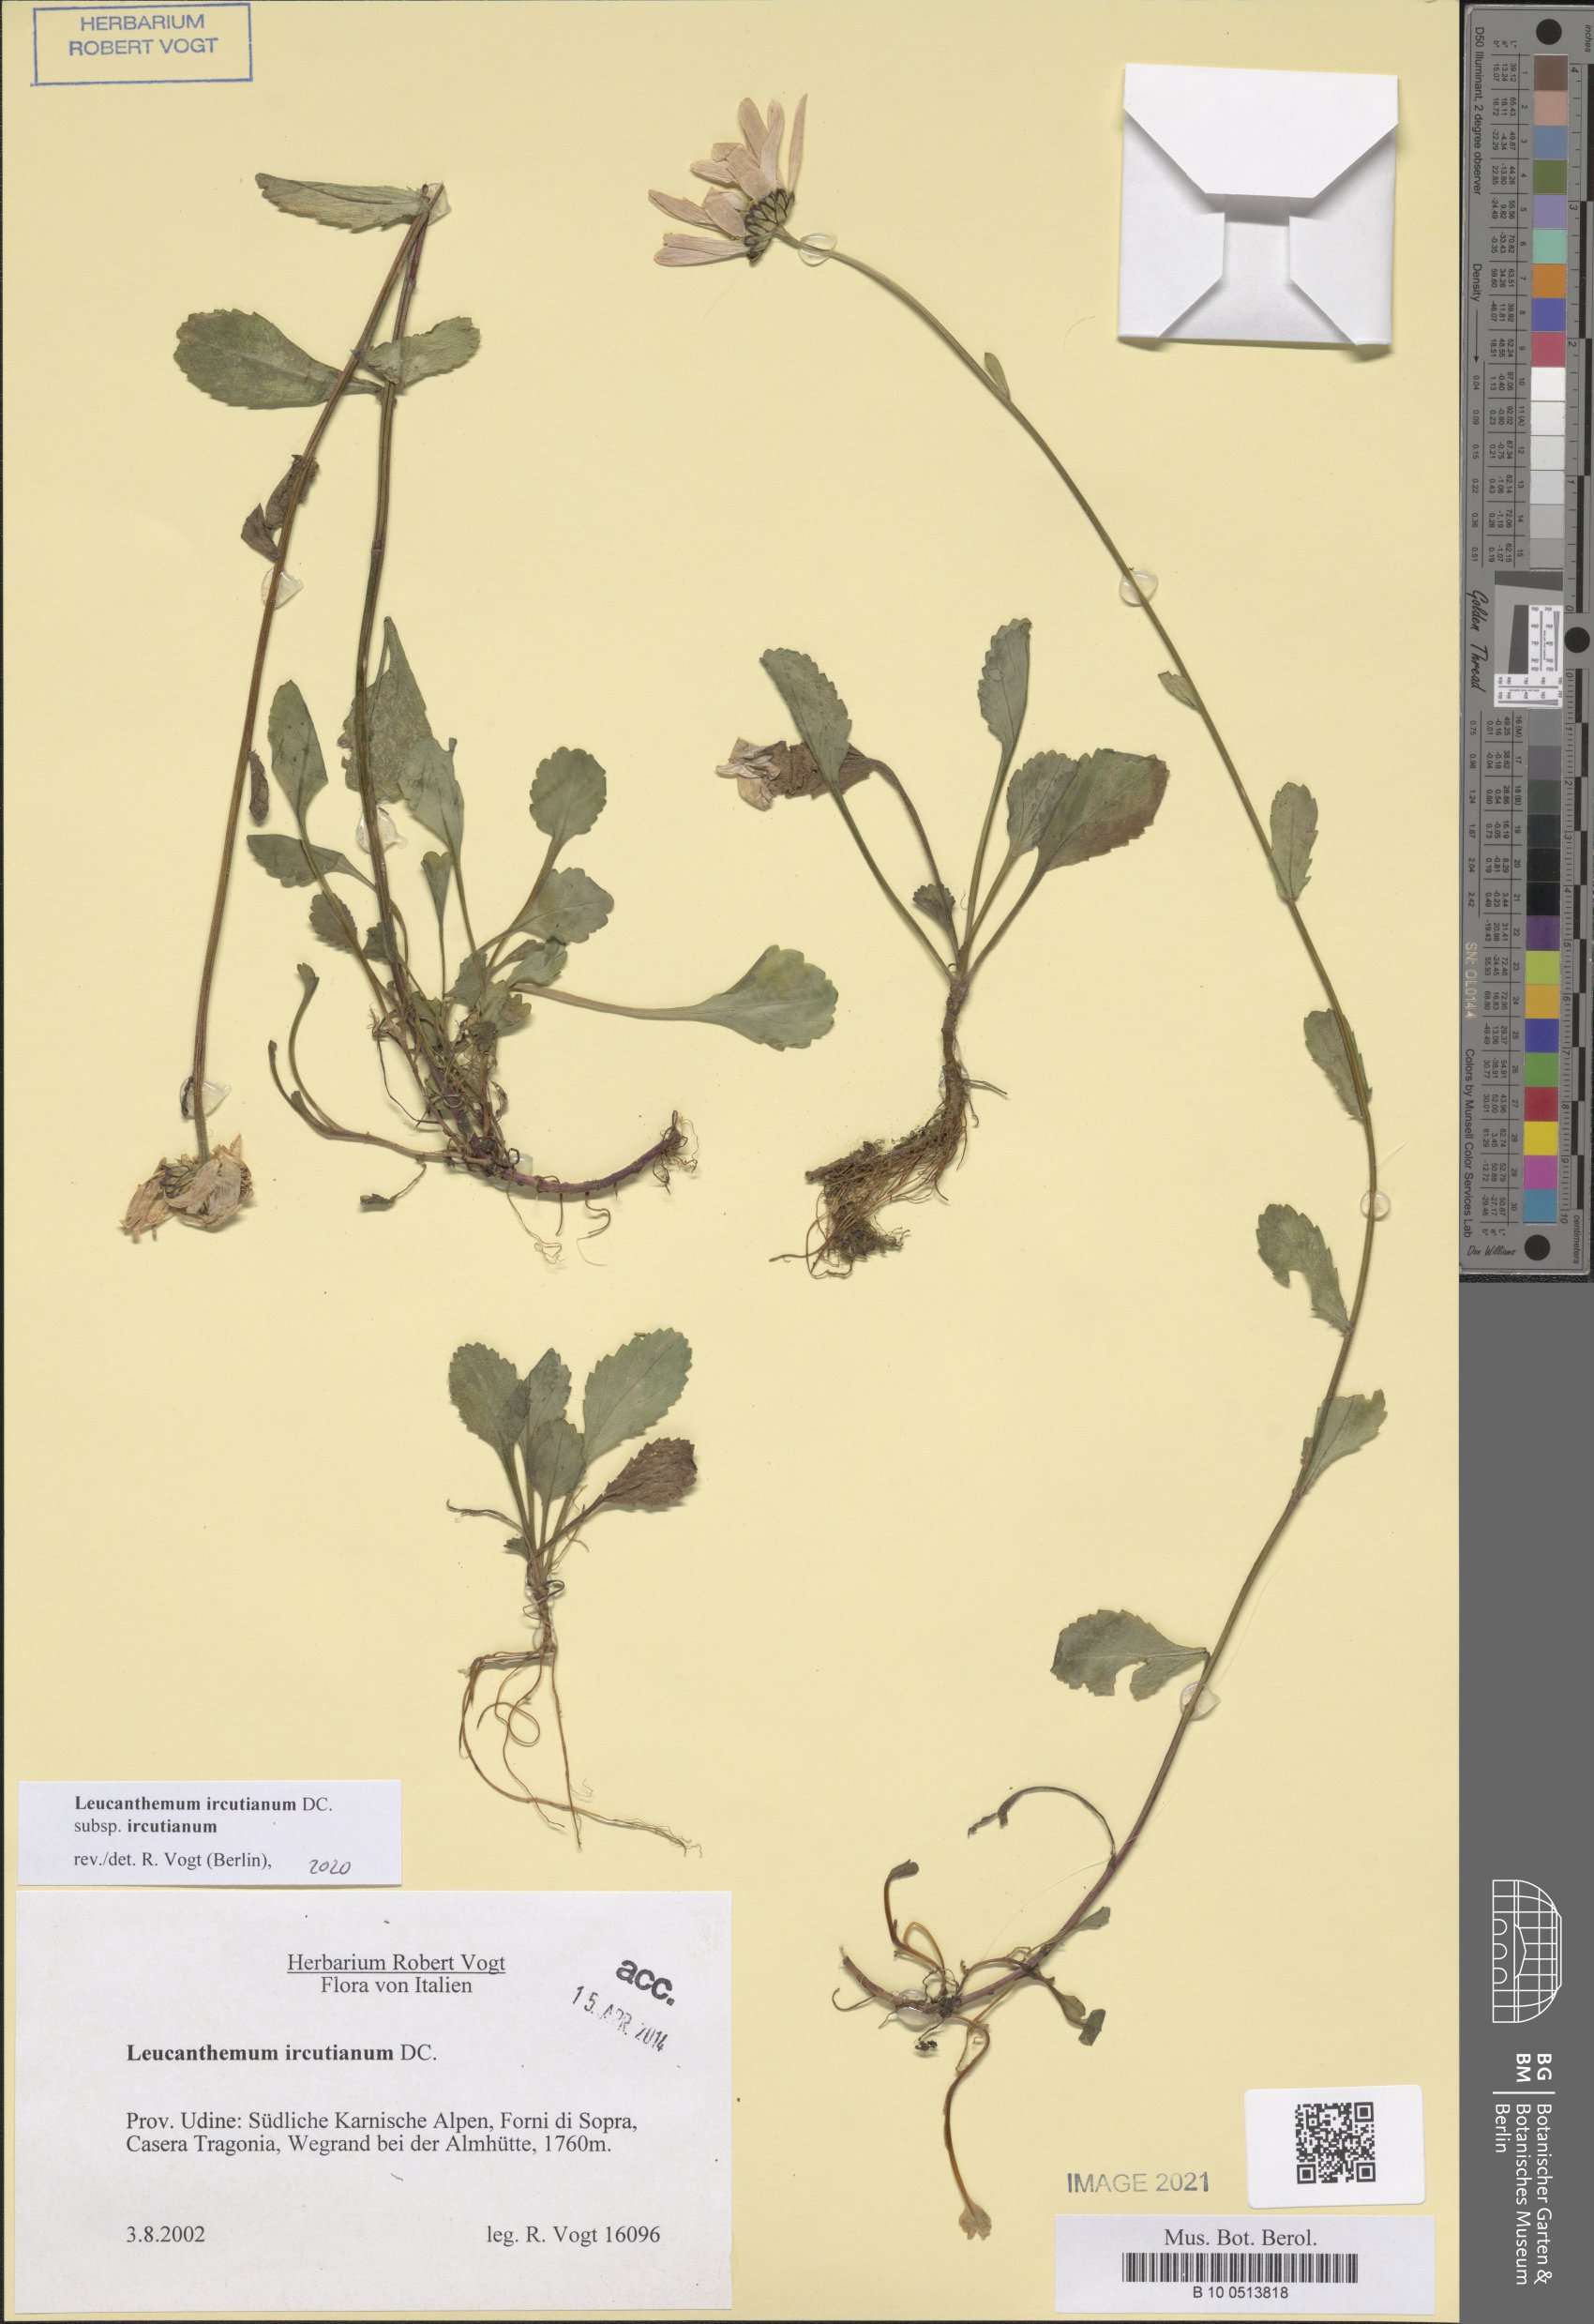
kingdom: Plantae
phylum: Tracheophyta
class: Magnoliopsida
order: Asterales
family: Asteraceae
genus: Leucanthemum
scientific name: Leucanthemum ircutianum
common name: Daisy
